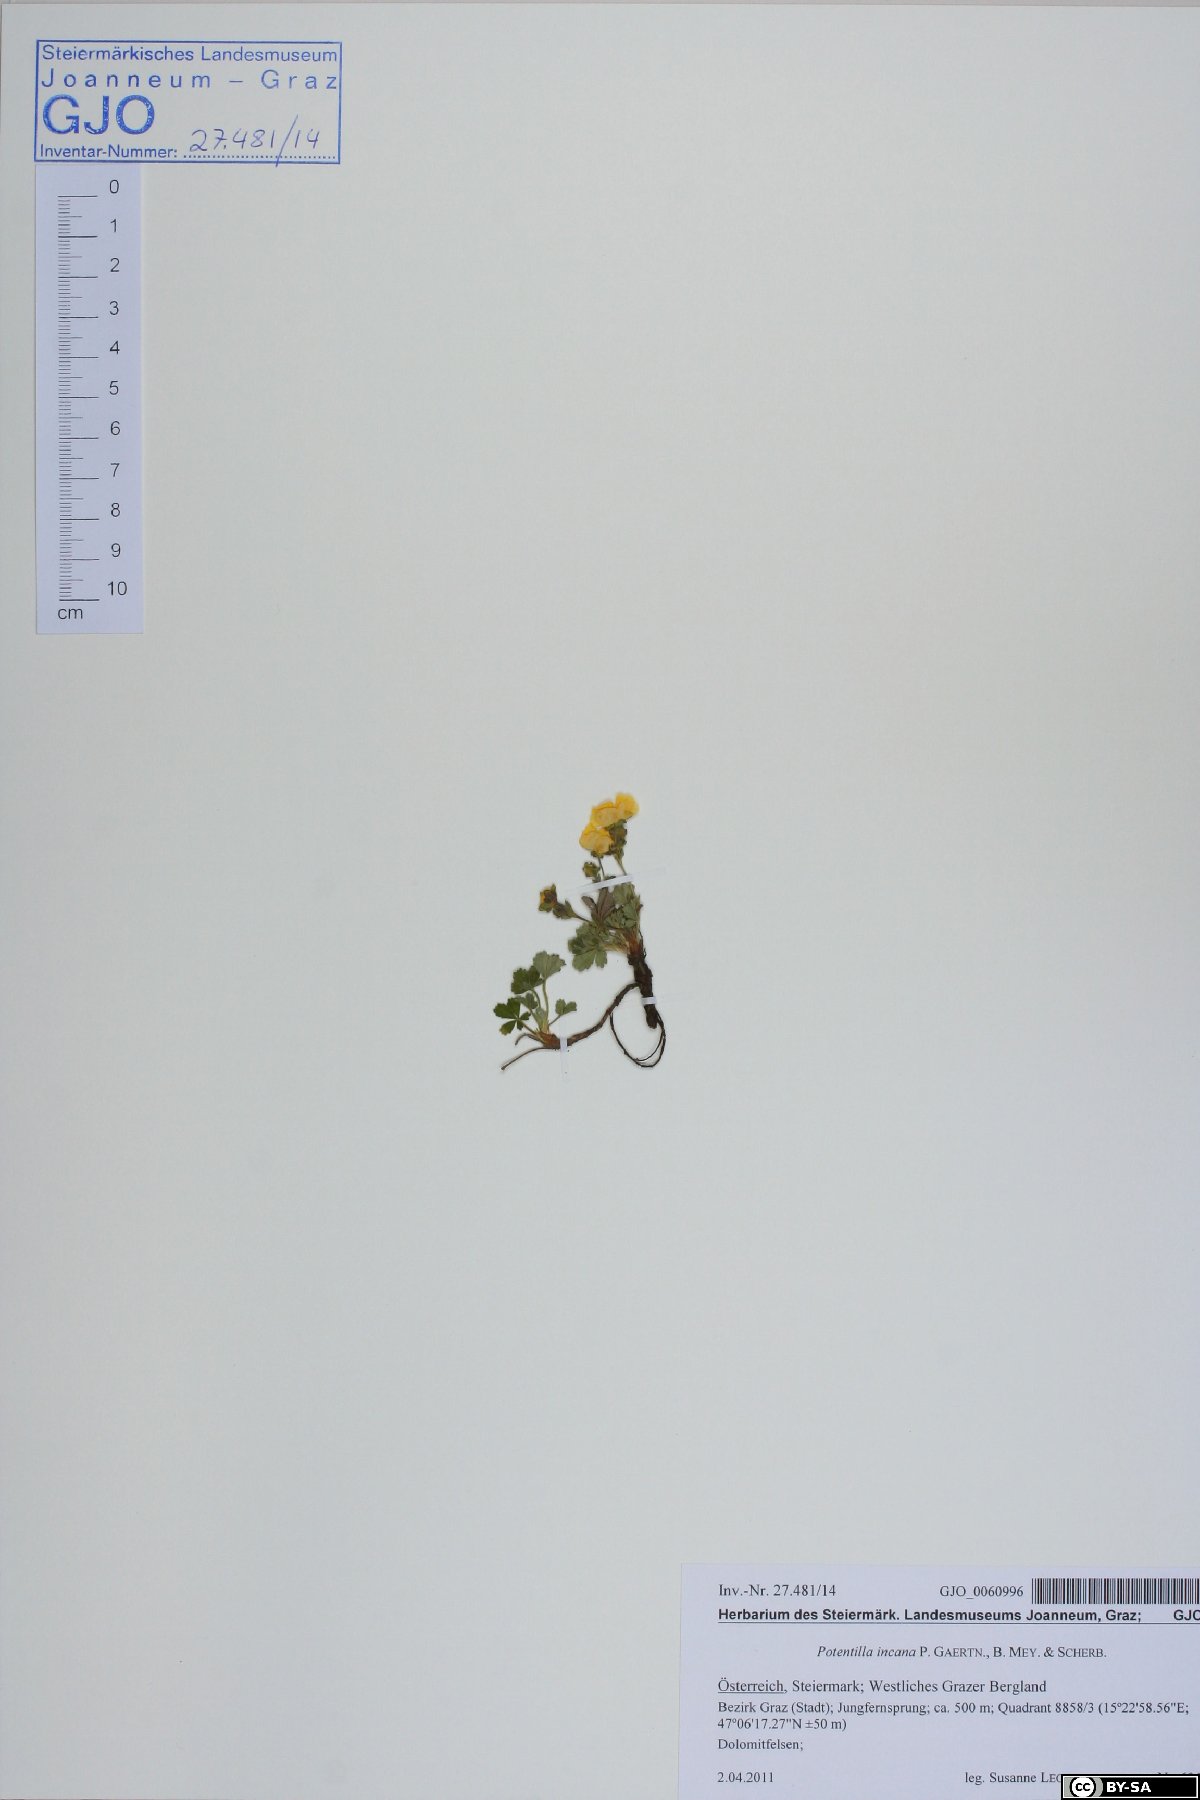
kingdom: Plantae
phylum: Tracheophyta
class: Magnoliopsida
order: Rosales
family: Rosaceae
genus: Potentilla
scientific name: Potentilla cinerea
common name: Ashy cinquefoil
